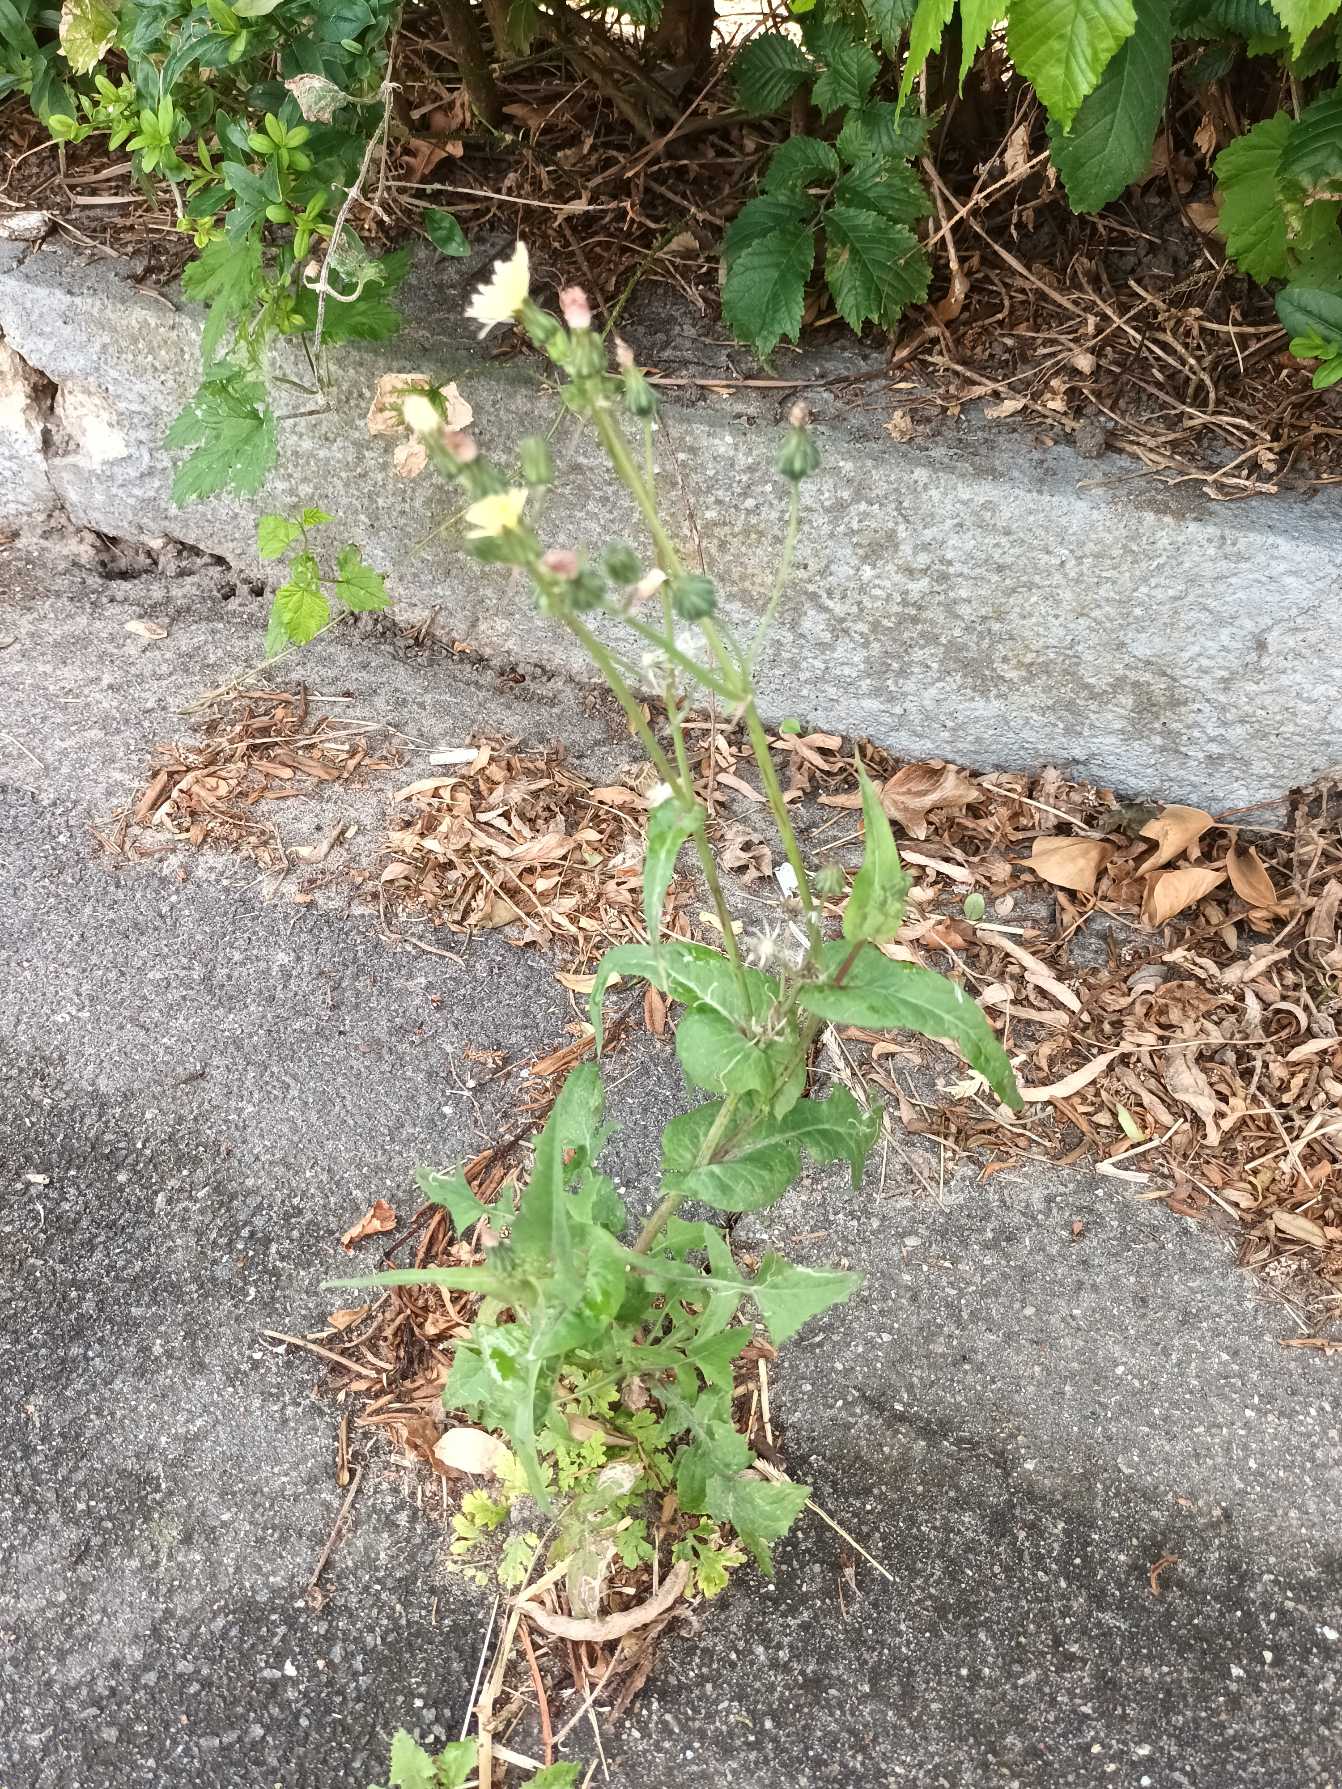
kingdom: Plantae
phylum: Tracheophyta
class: Magnoliopsida
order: Asterales
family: Asteraceae
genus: Sonchus
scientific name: Sonchus oleraceus
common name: Almindelig svinemælk
